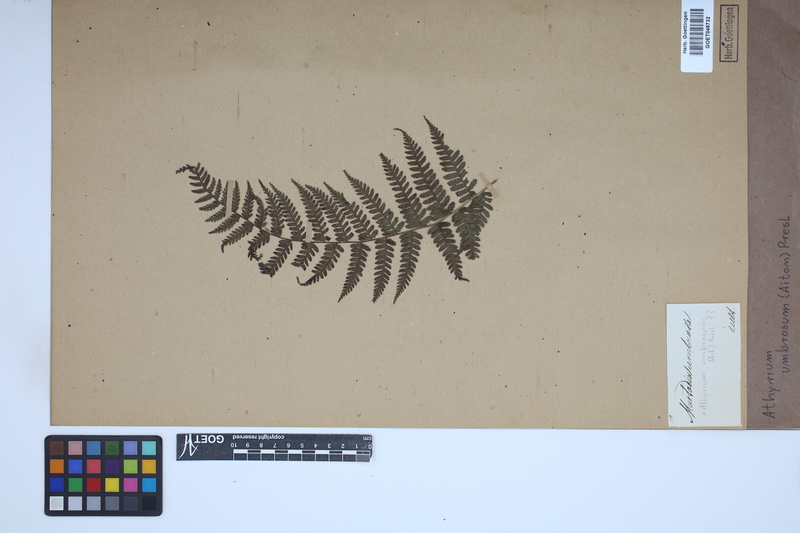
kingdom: Plantae
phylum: Tracheophyta
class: Polypodiopsida
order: Polypodiales
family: Athyriaceae
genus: Diplazium
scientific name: Diplazium caudatum
